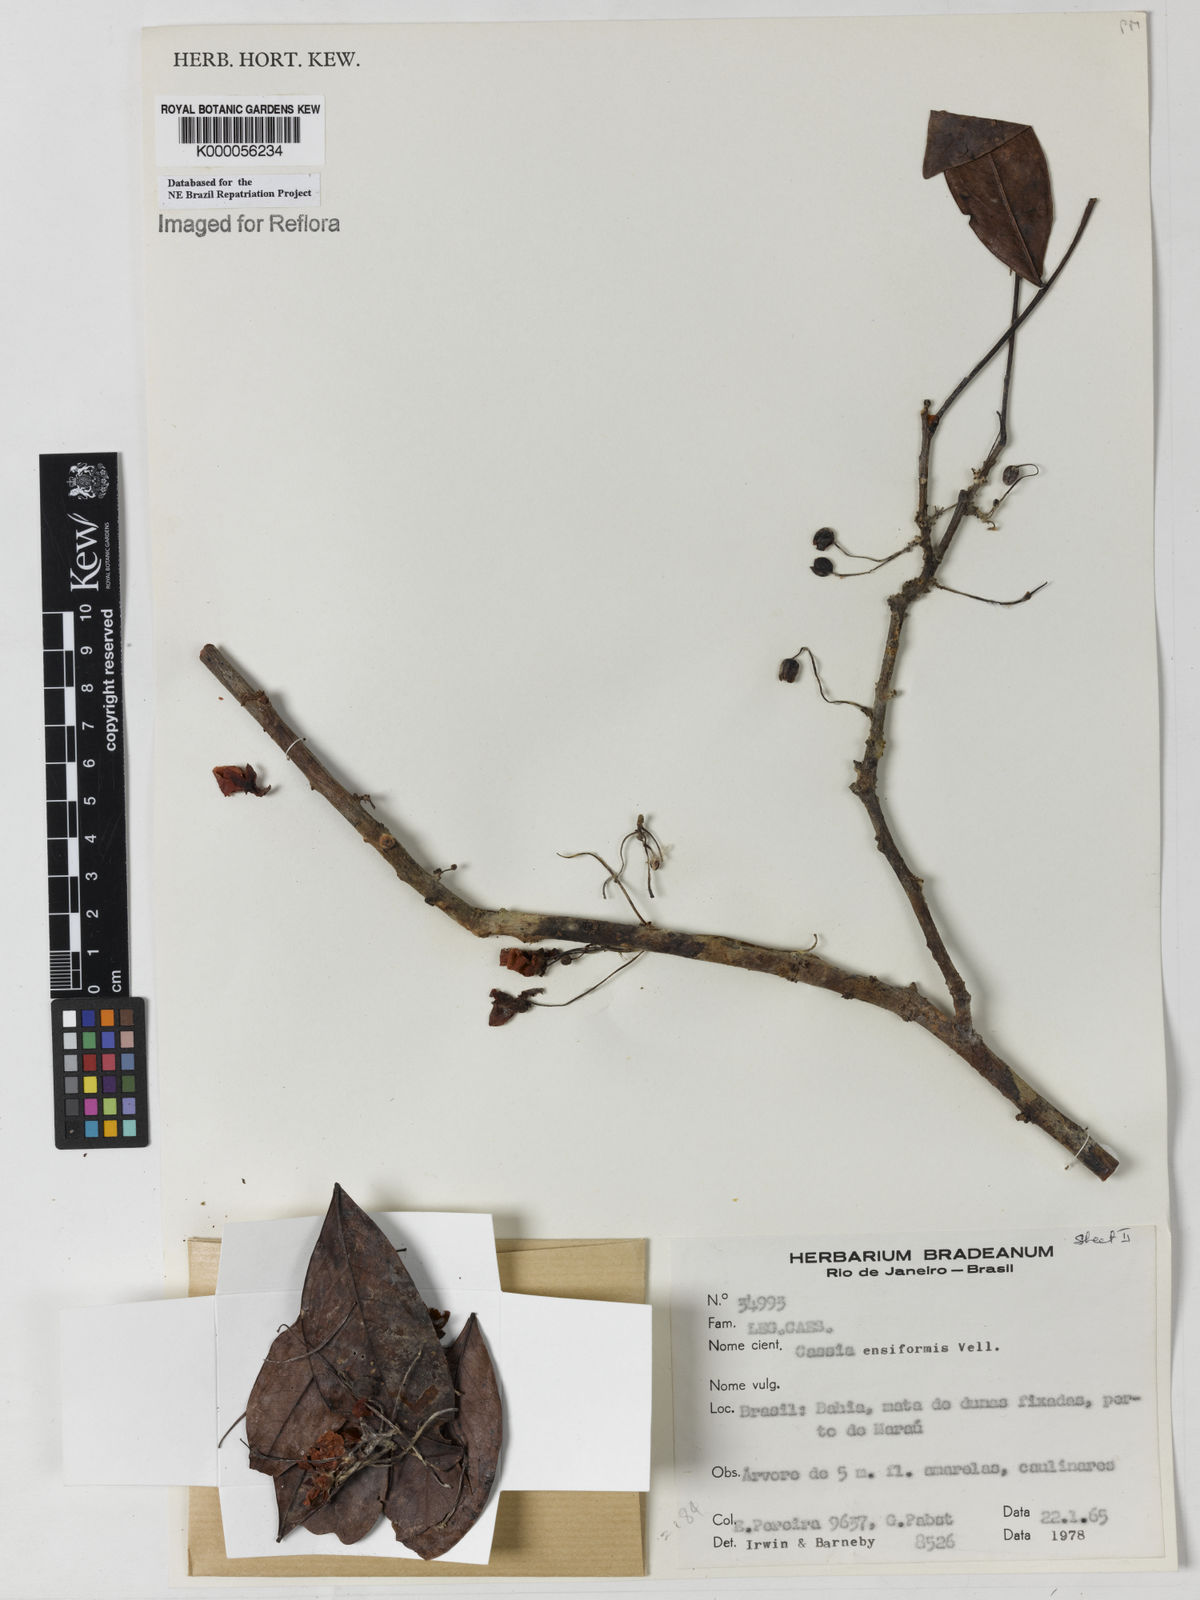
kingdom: Plantae
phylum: Tracheophyta
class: Magnoliopsida
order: Fabales
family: Fabaceae
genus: Chamaecrista
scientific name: Chamaecrista ensiformis
